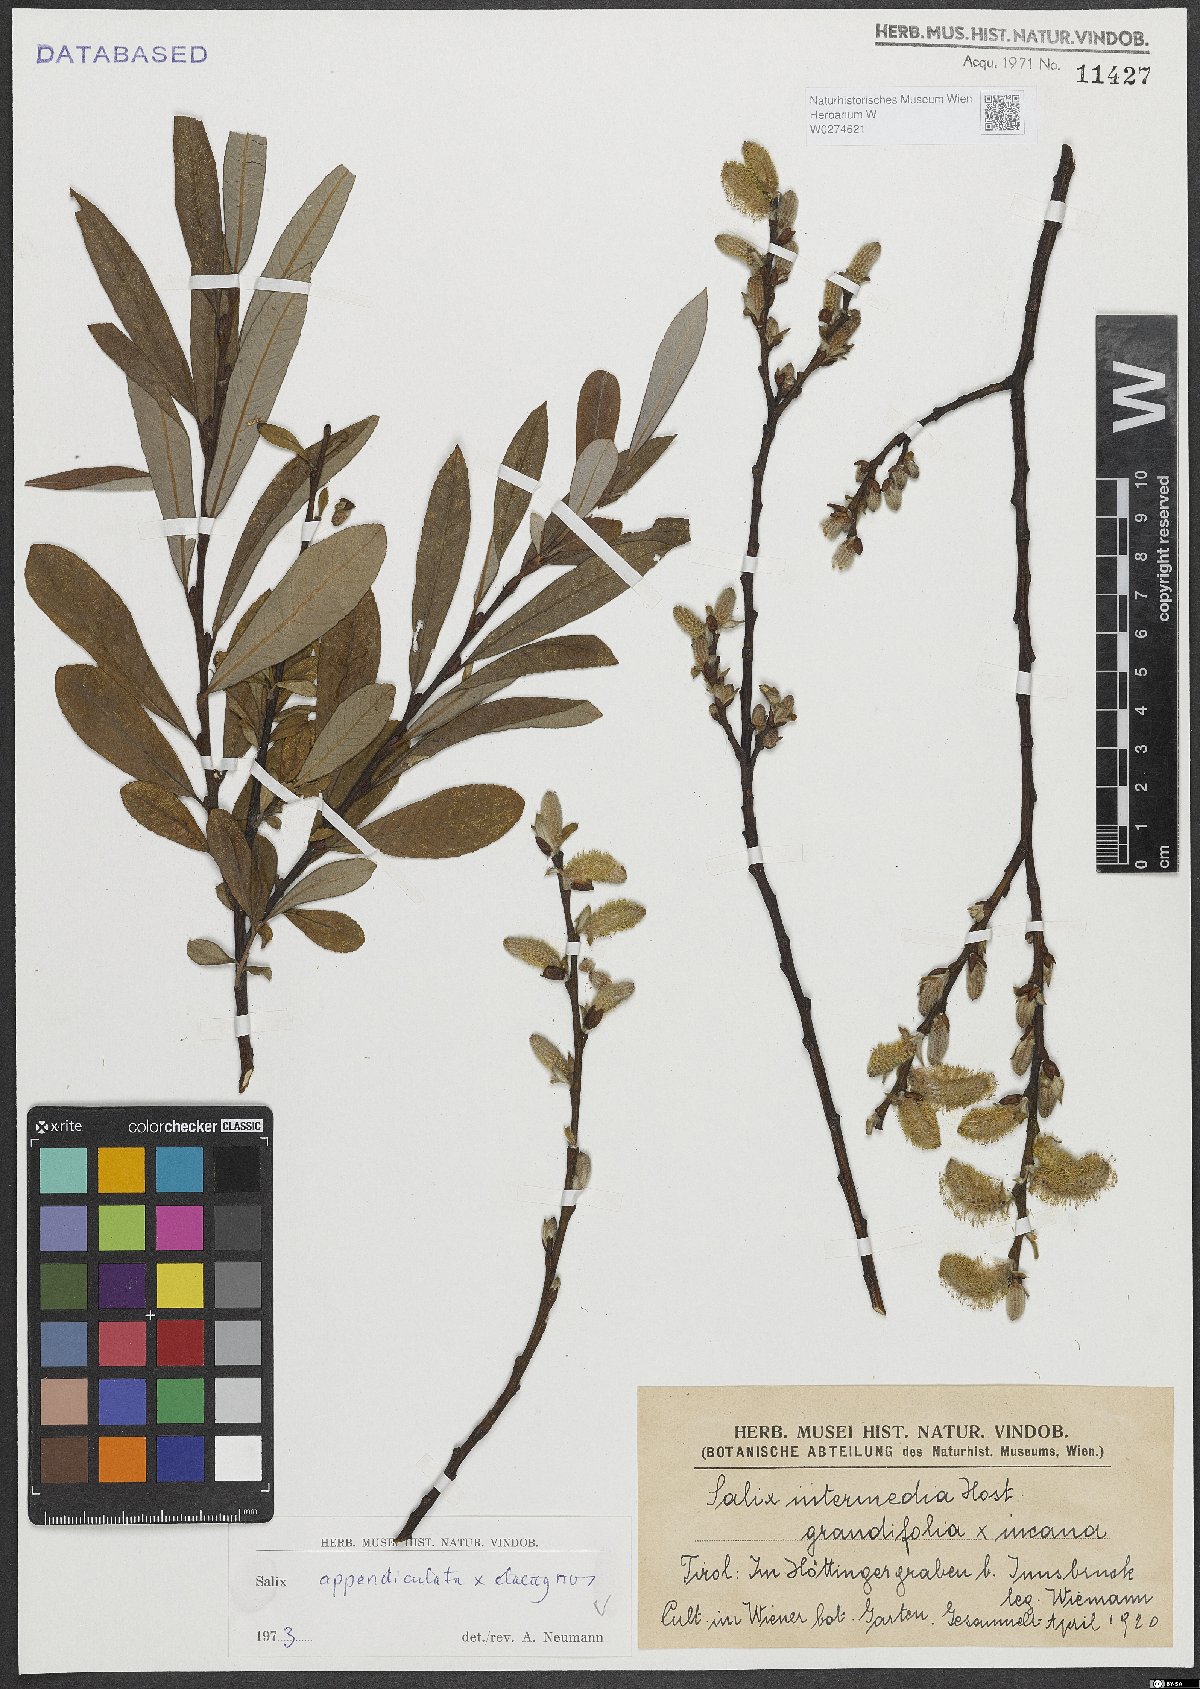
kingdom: Plantae
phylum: Tracheophyta
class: Magnoliopsida
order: Malpighiales
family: Salicaceae
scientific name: Salicaceae
